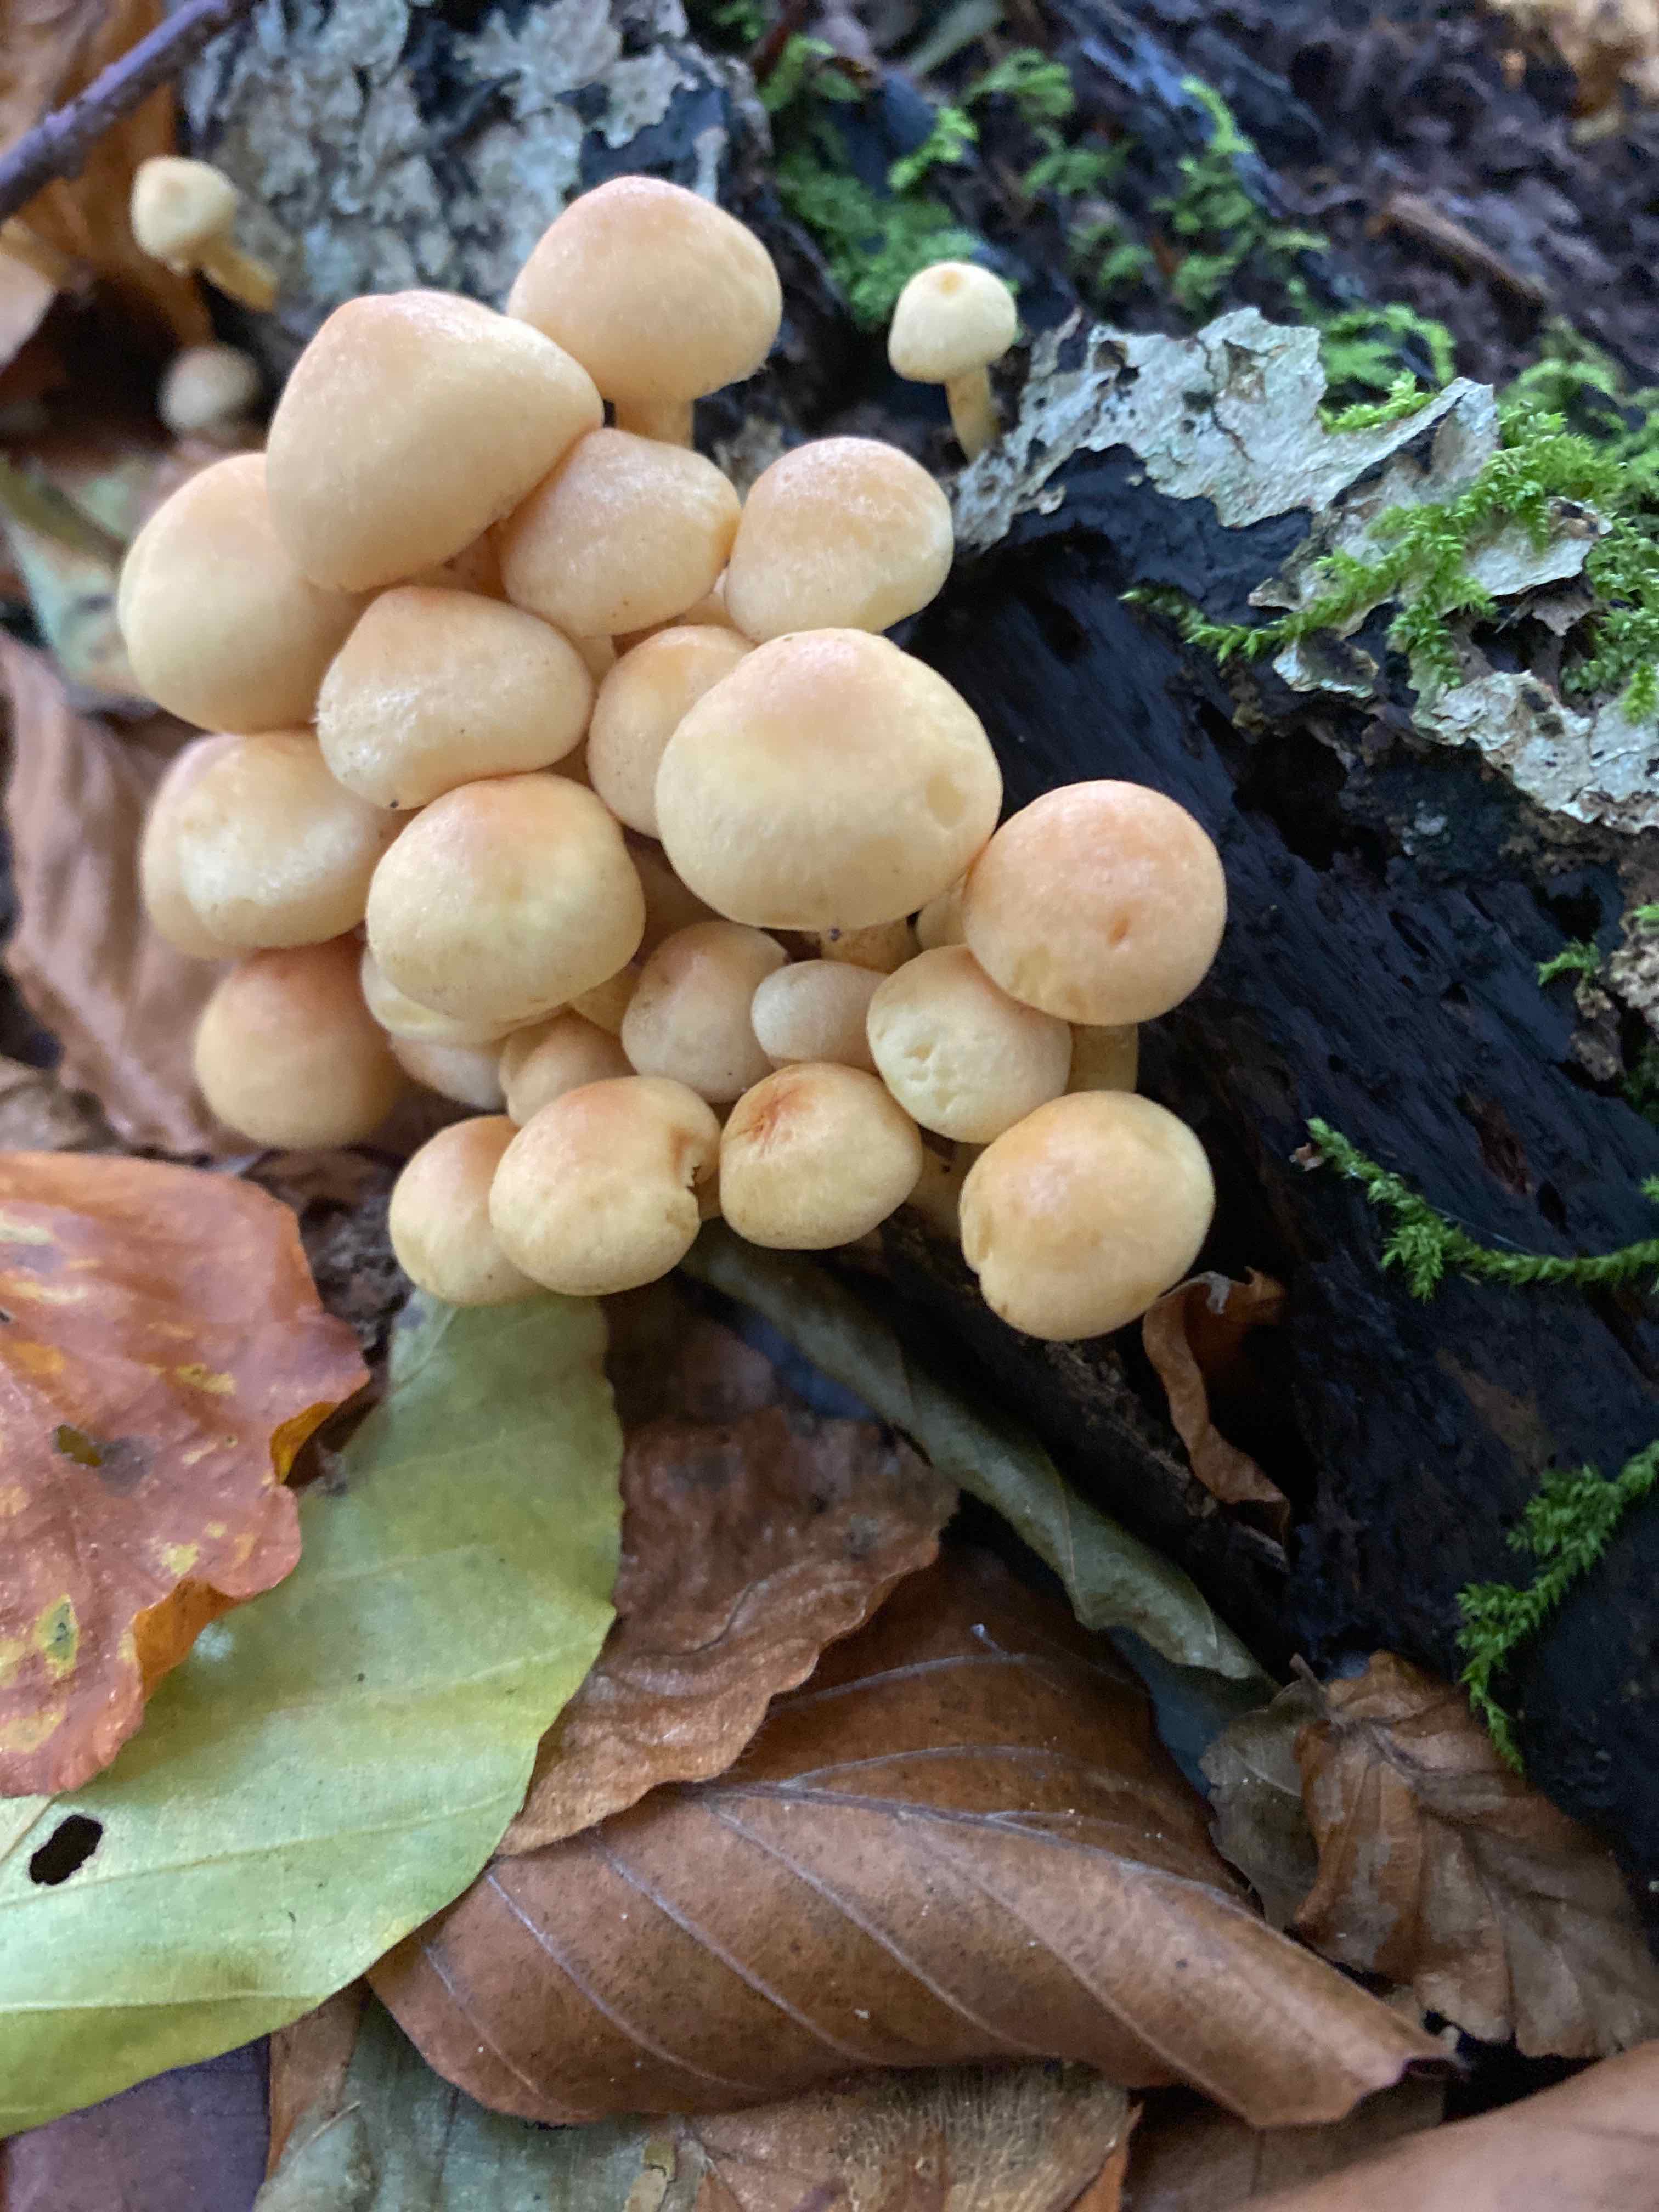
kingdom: Fungi
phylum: Basidiomycota
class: Agaricomycetes
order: Agaricales
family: Strophariaceae
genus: Hypholoma
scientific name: Hypholoma fasciculare
